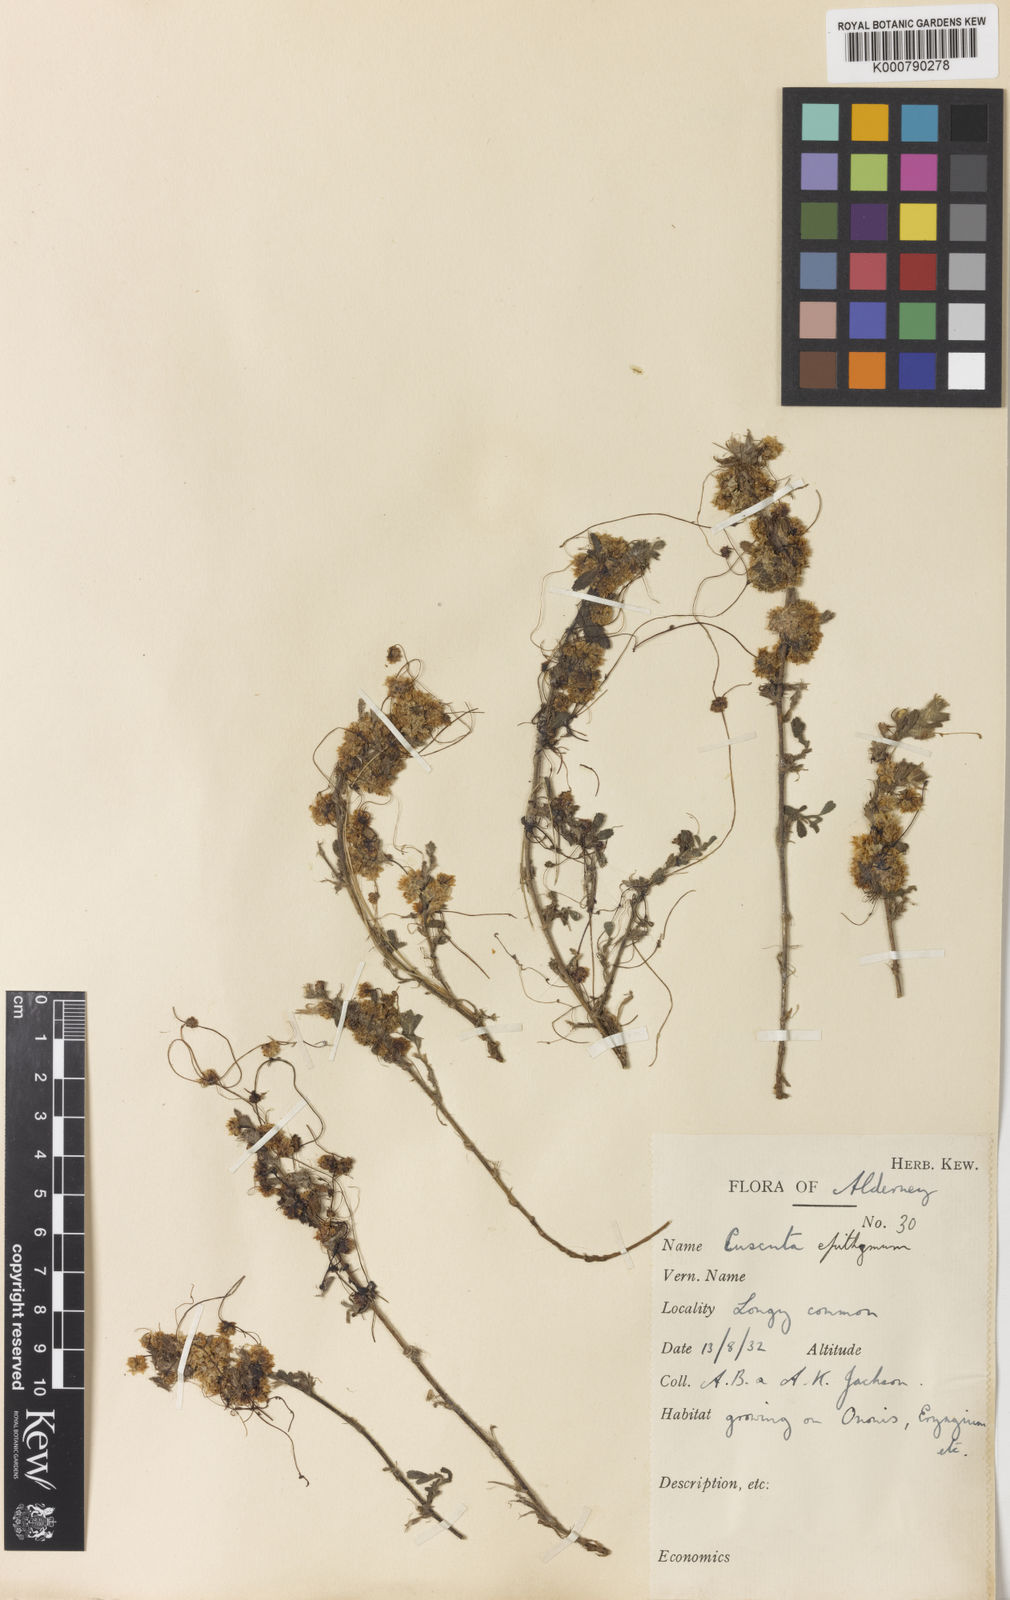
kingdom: Plantae
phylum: Tracheophyta
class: Magnoliopsida
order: Solanales
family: Convolvulaceae
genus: Cuscuta
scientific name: Cuscuta epithymum
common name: Clover dodder
